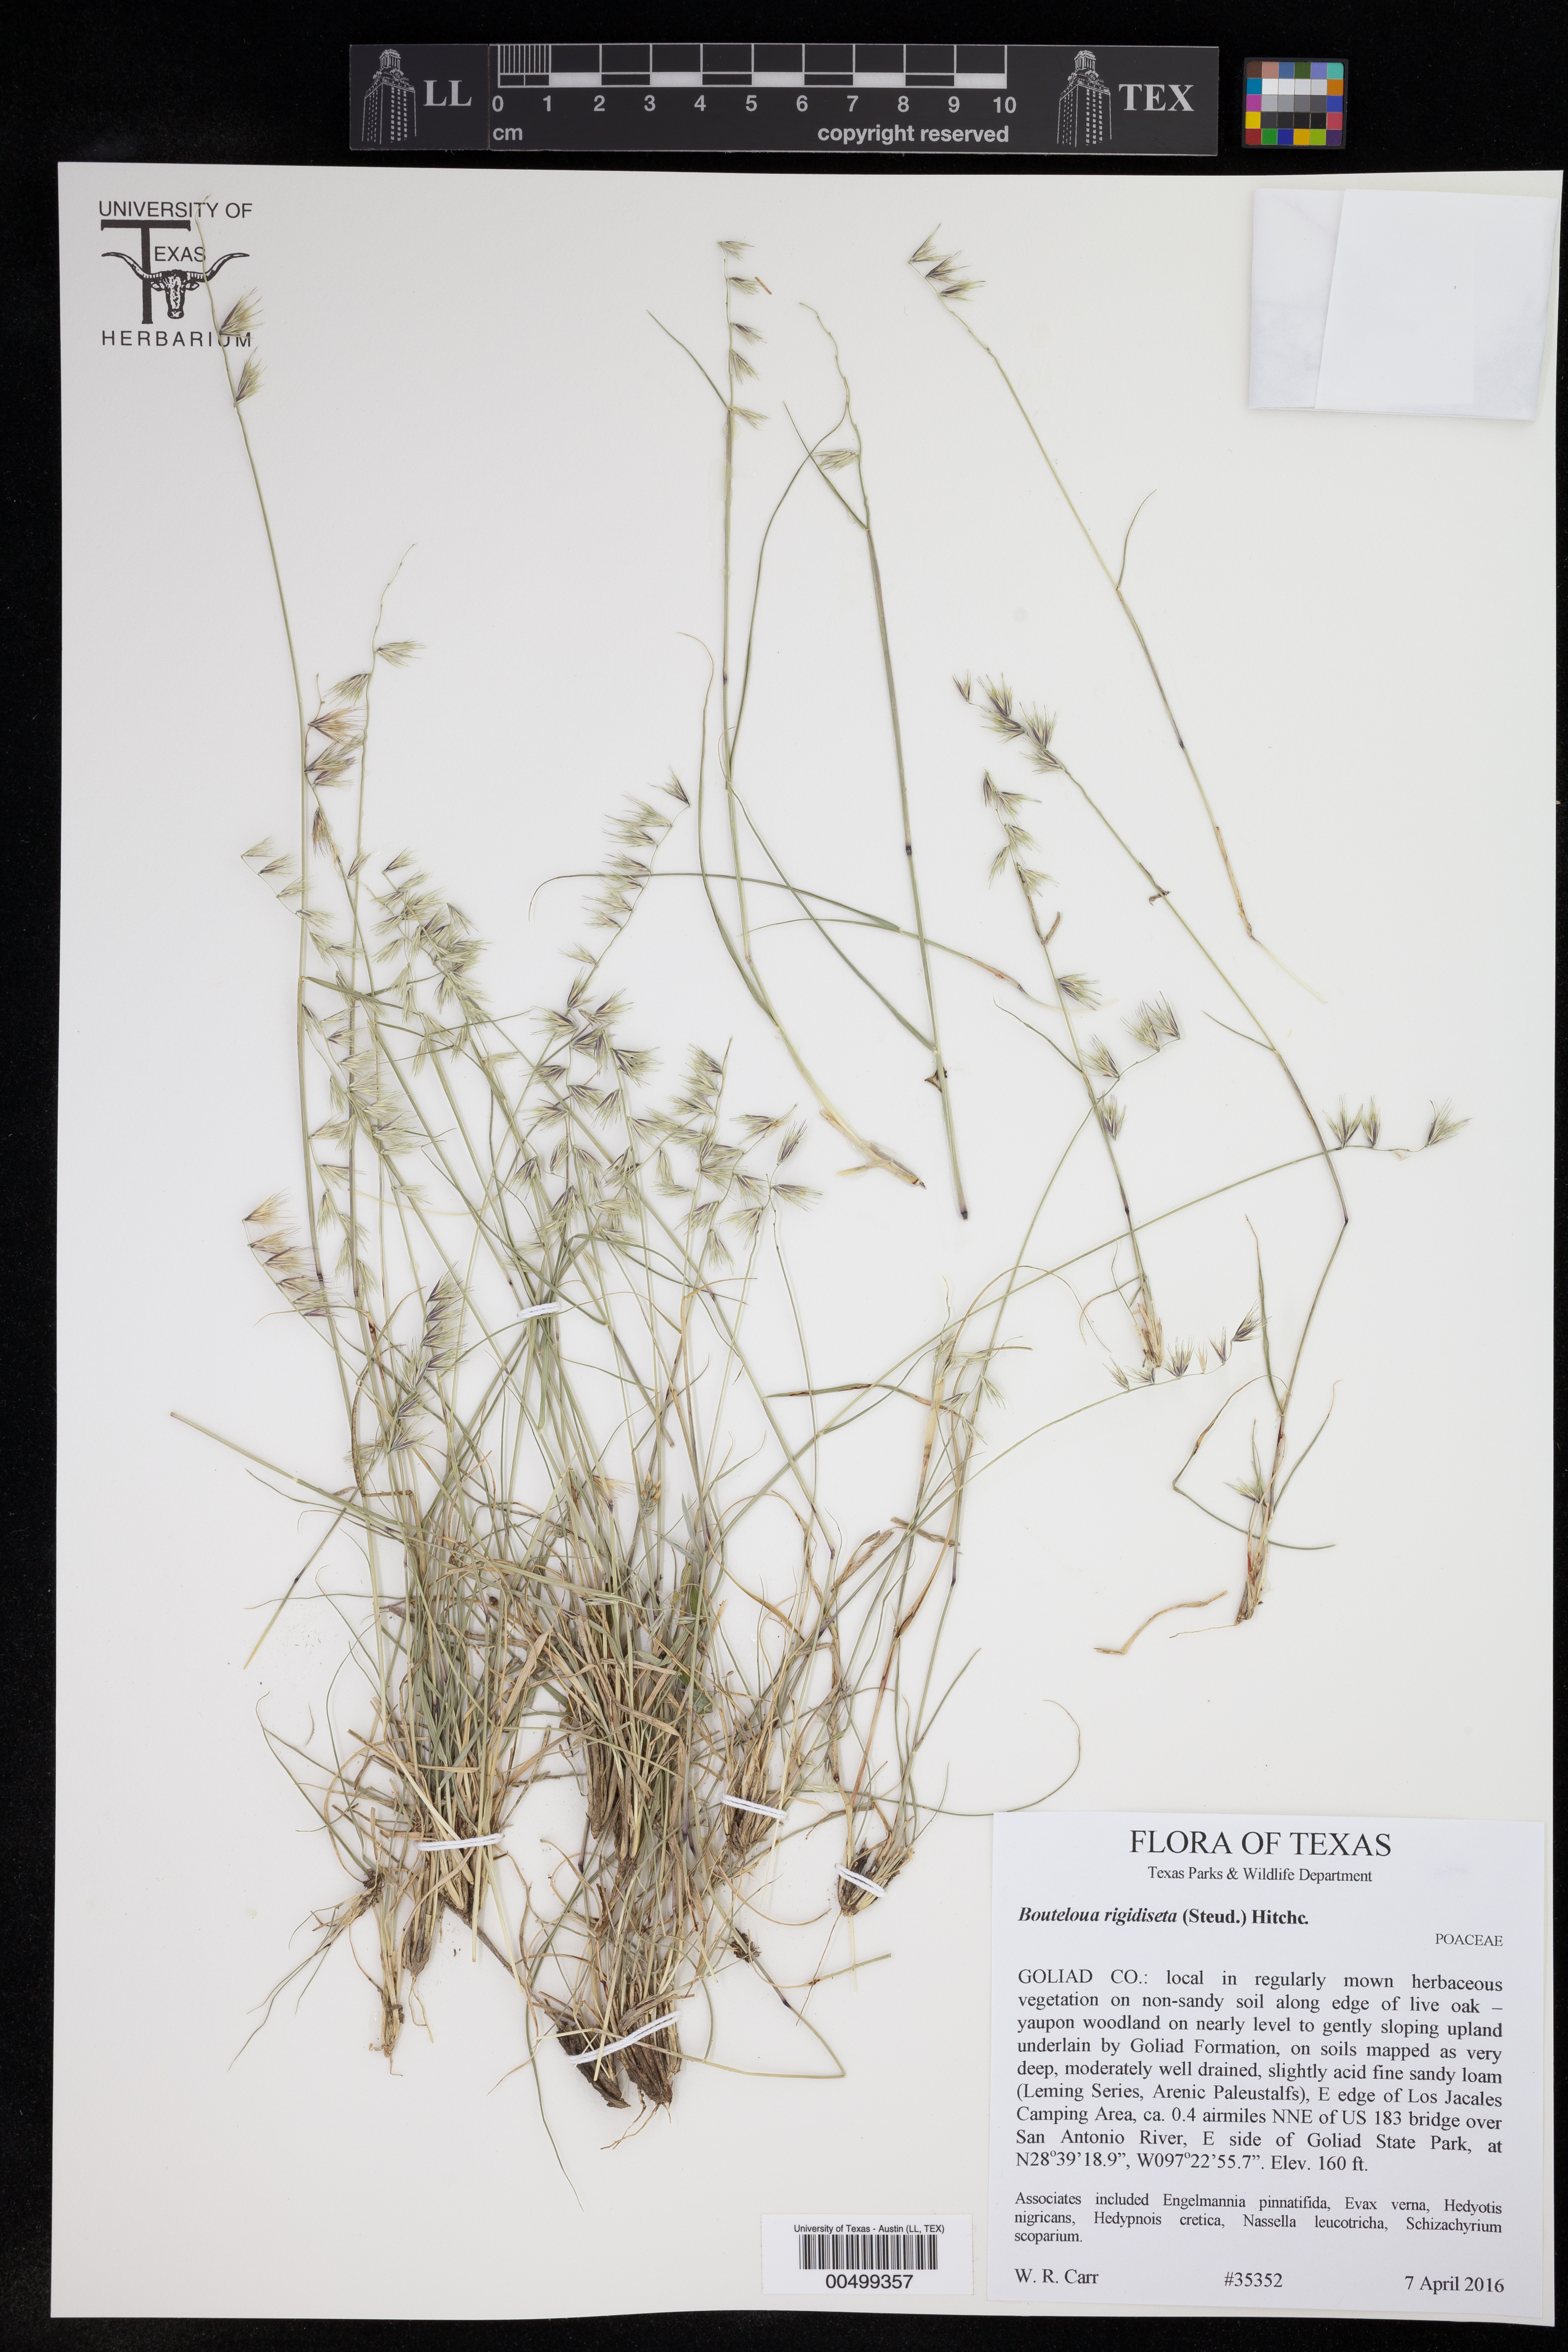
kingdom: Plantae
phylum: Tracheophyta
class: Liliopsida
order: Poales
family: Poaceae
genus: Bouteloua
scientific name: Bouteloua rigidiseta
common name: Texas grama
